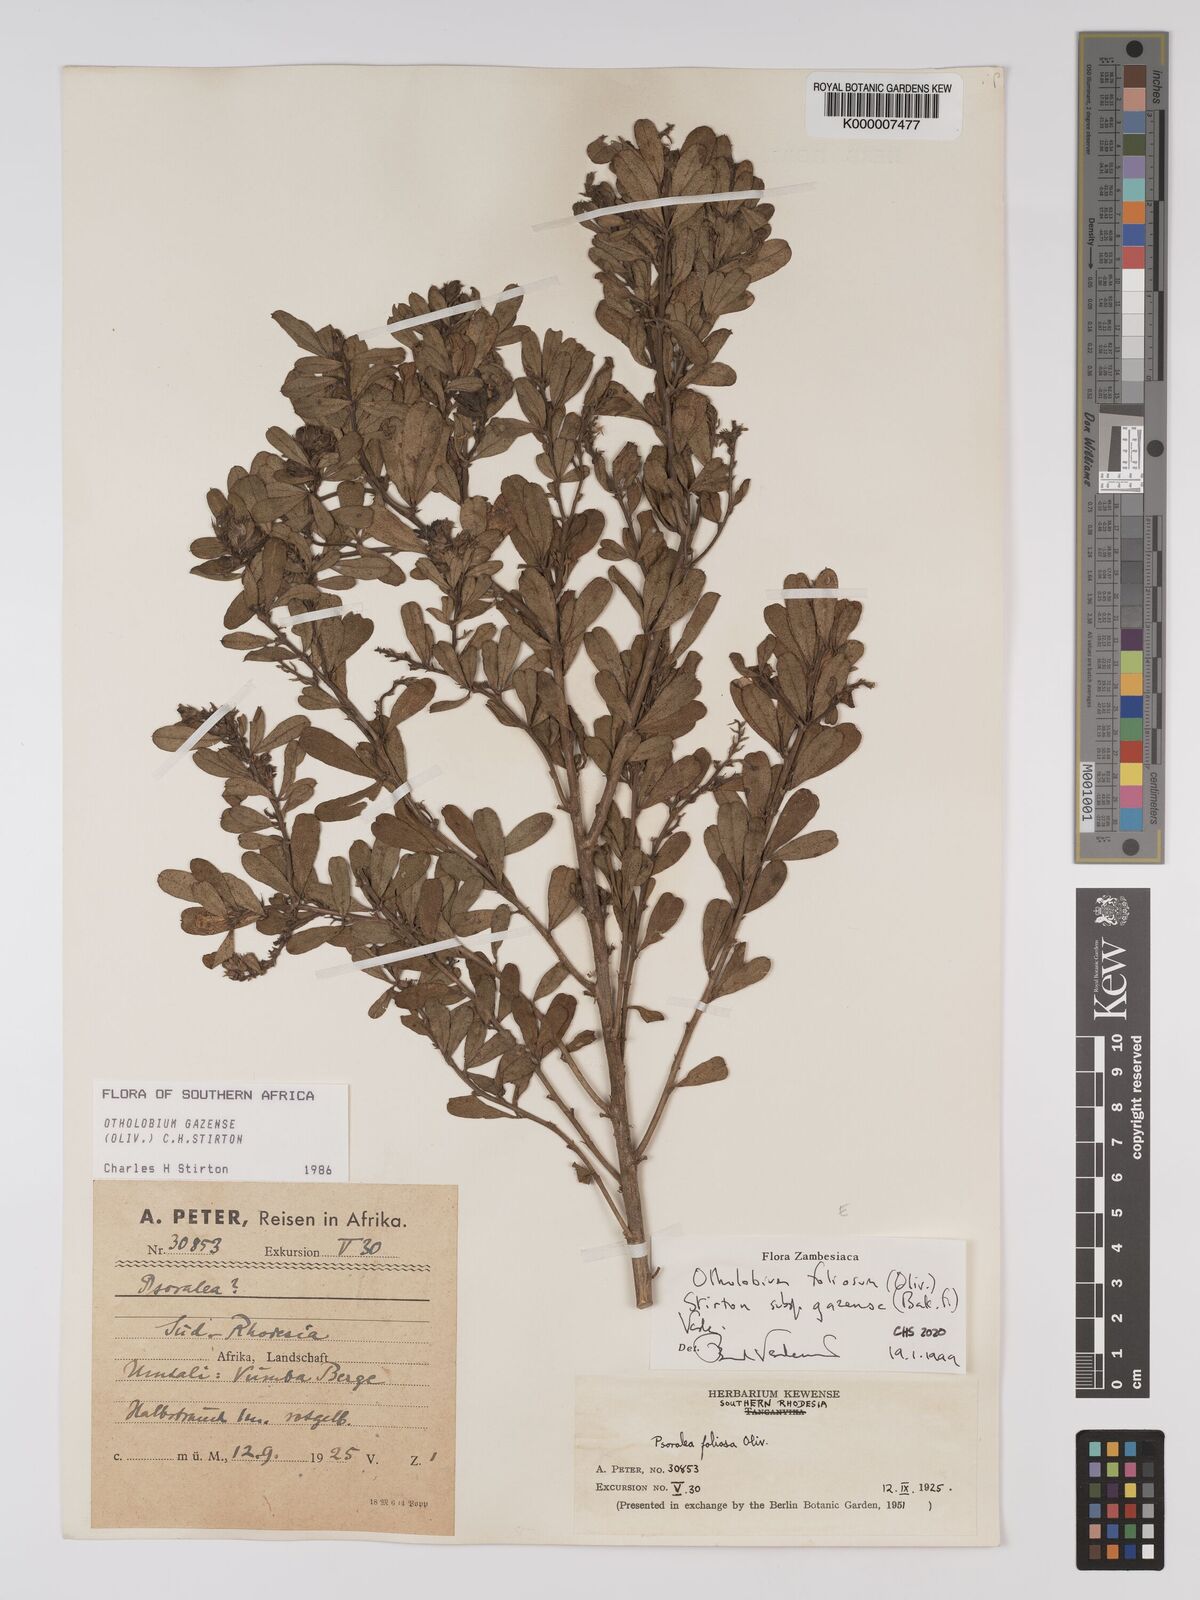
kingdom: Plantae
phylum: Tracheophyta
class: Magnoliopsida
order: Fabales
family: Fabaceae
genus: Psoralea
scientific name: Psoralea foliosa
